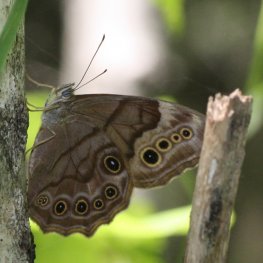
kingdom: Animalia
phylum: Arthropoda
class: Insecta
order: Lepidoptera
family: Nymphalidae
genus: Lethe
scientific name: Lethe anthedon
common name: Northern Pearly-Eye
